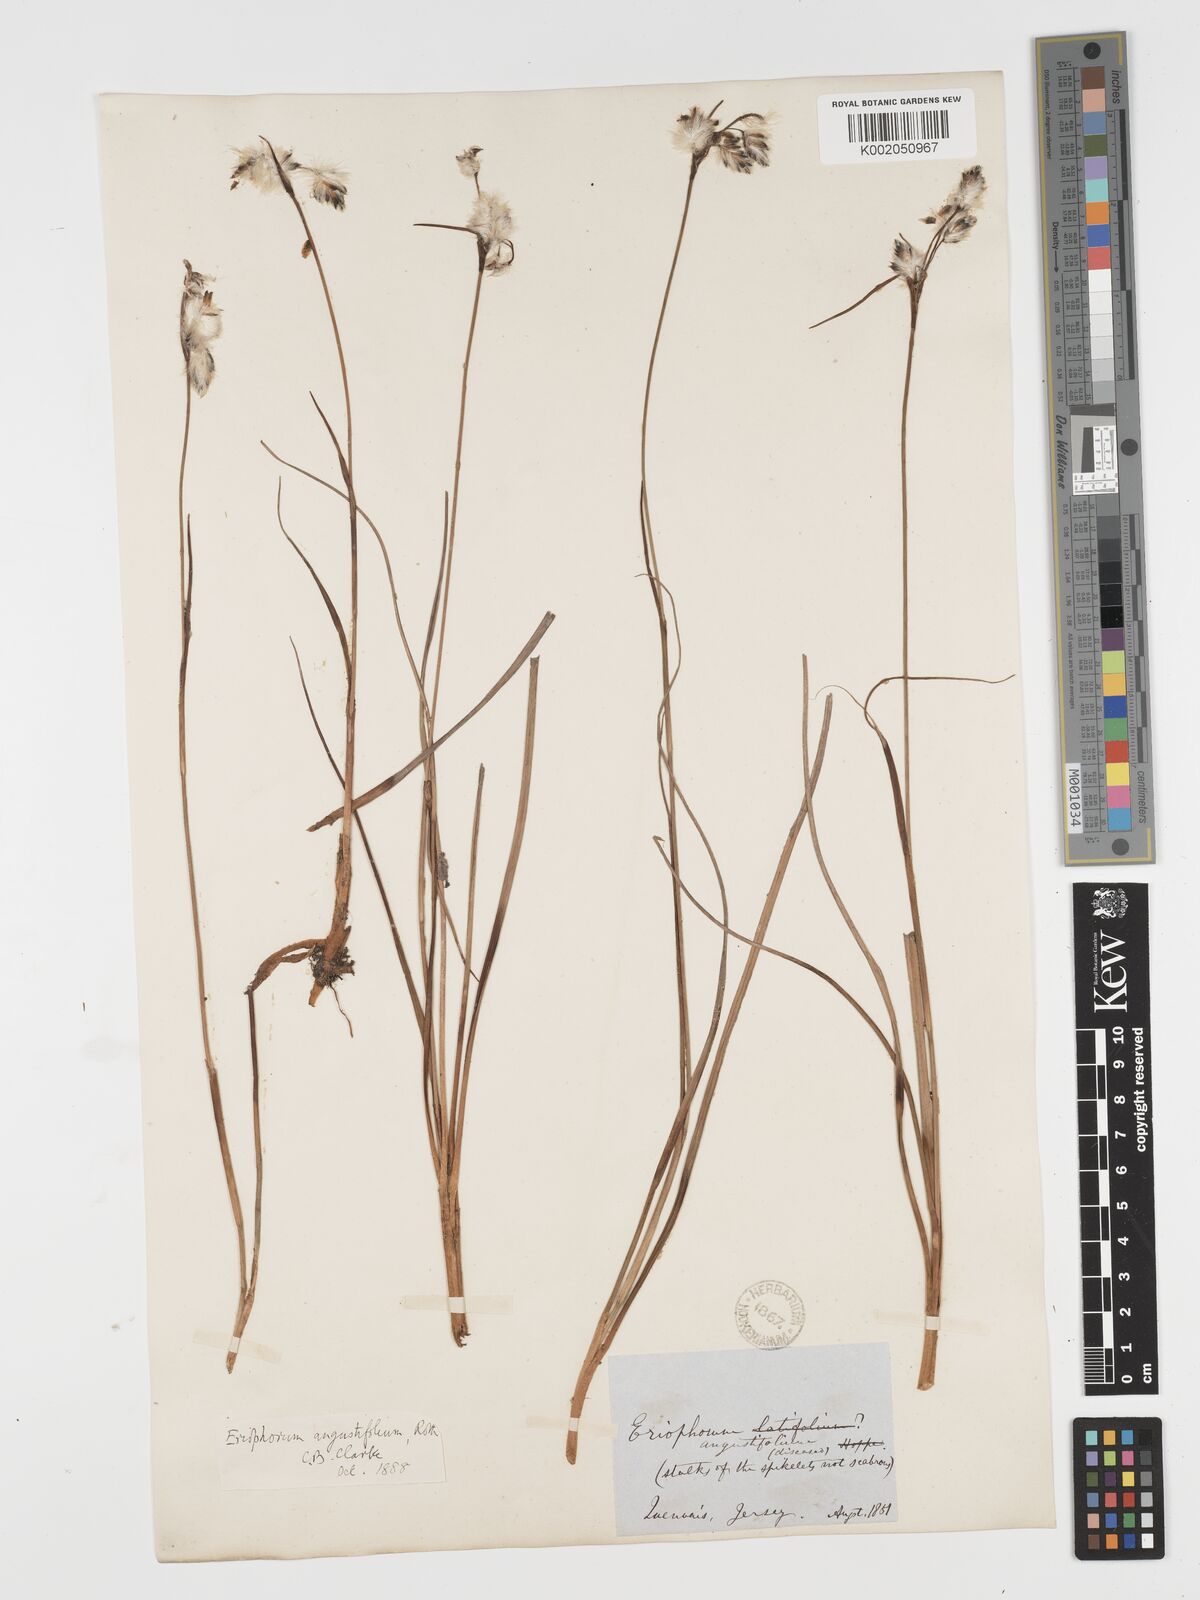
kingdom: Plantae
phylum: Tracheophyta
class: Liliopsida
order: Poales
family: Cyperaceae
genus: Eriophorum
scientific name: Eriophorum angustifolium
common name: Common cottongrass
